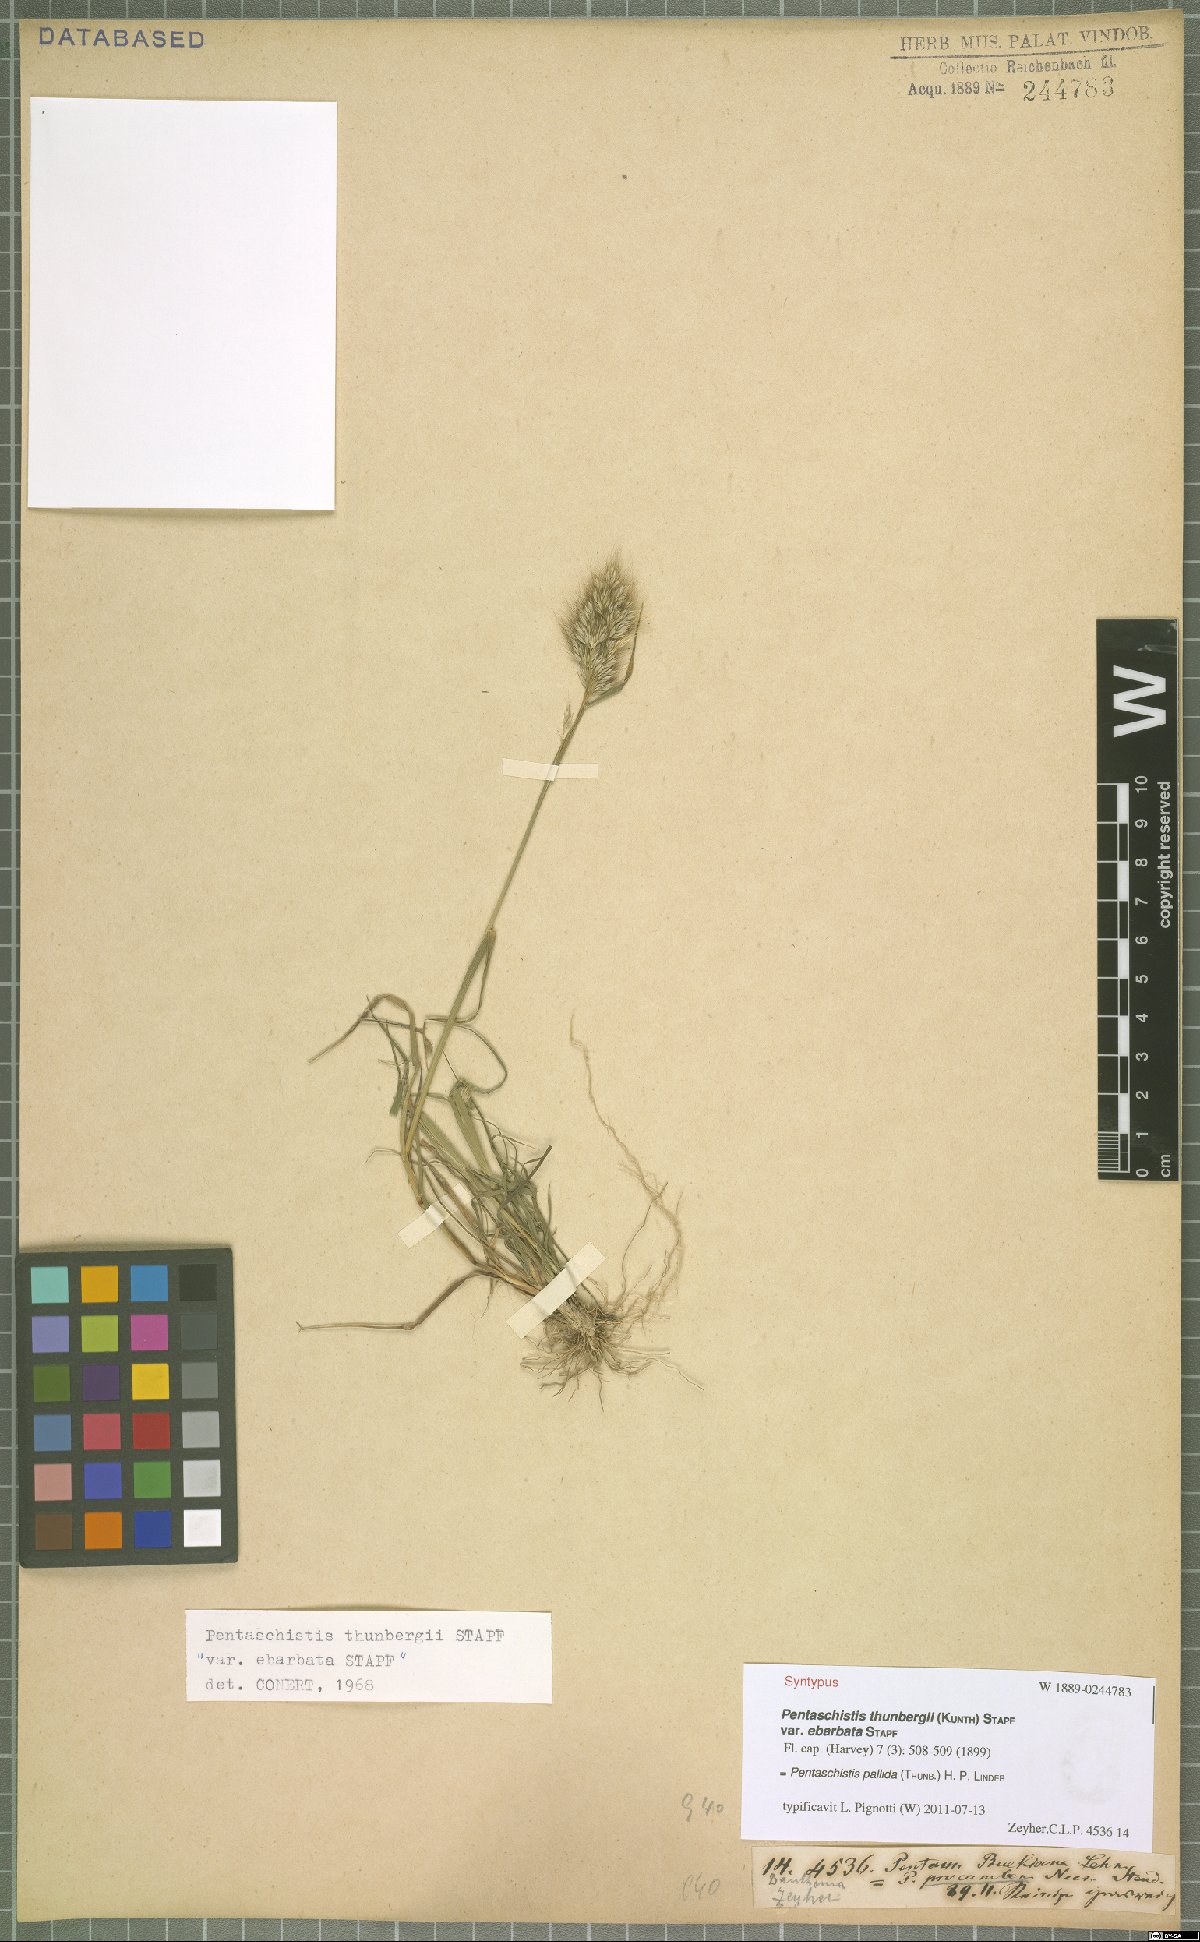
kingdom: Plantae
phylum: Tracheophyta
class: Liliopsida
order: Poales
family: Poaceae
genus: Pentameris
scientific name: Pentameris pallida
